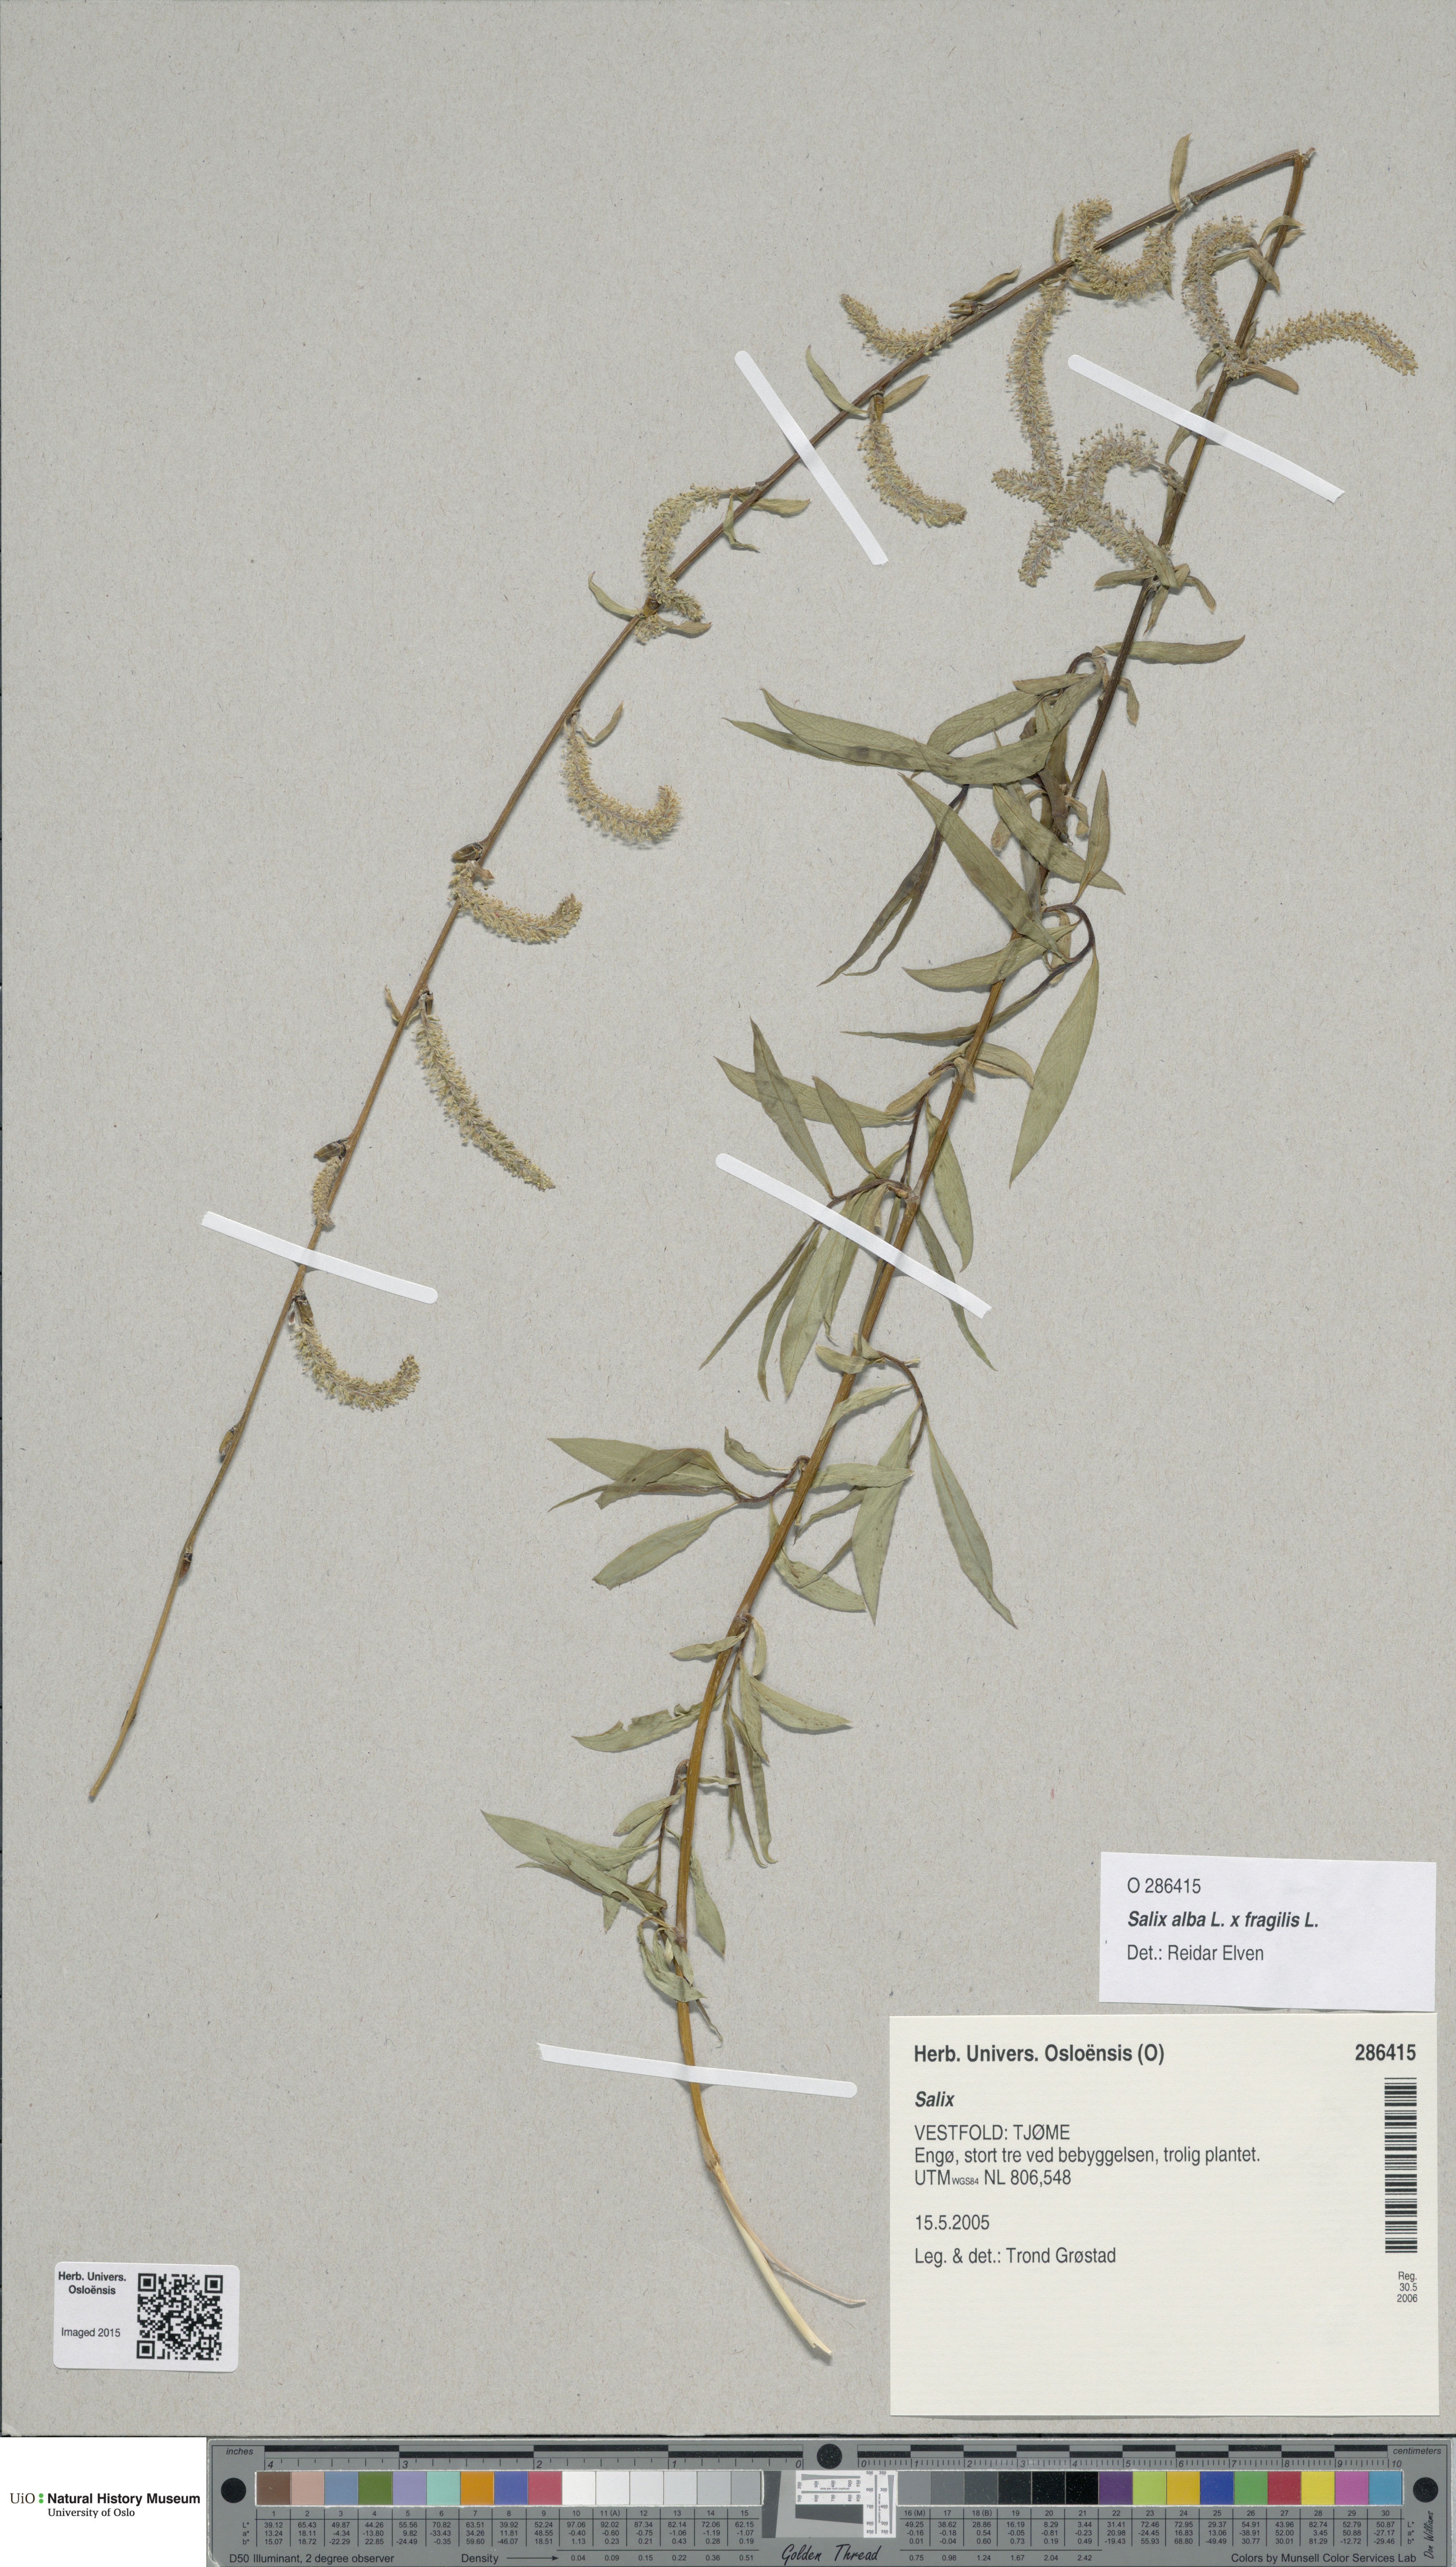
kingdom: Plantae
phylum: Tracheophyta
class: Magnoliopsida
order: Malpighiales
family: Salicaceae
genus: Salix
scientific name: Salix
